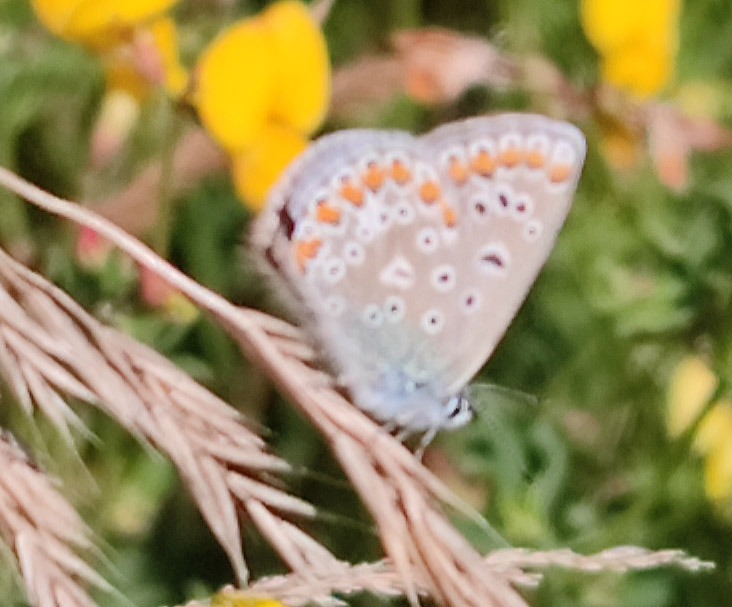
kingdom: Animalia
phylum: Arthropoda
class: Insecta
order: Lepidoptera
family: Lycaenidae
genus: Polyommatus
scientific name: Polyommatus icarus
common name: Almindelig blåfugl
